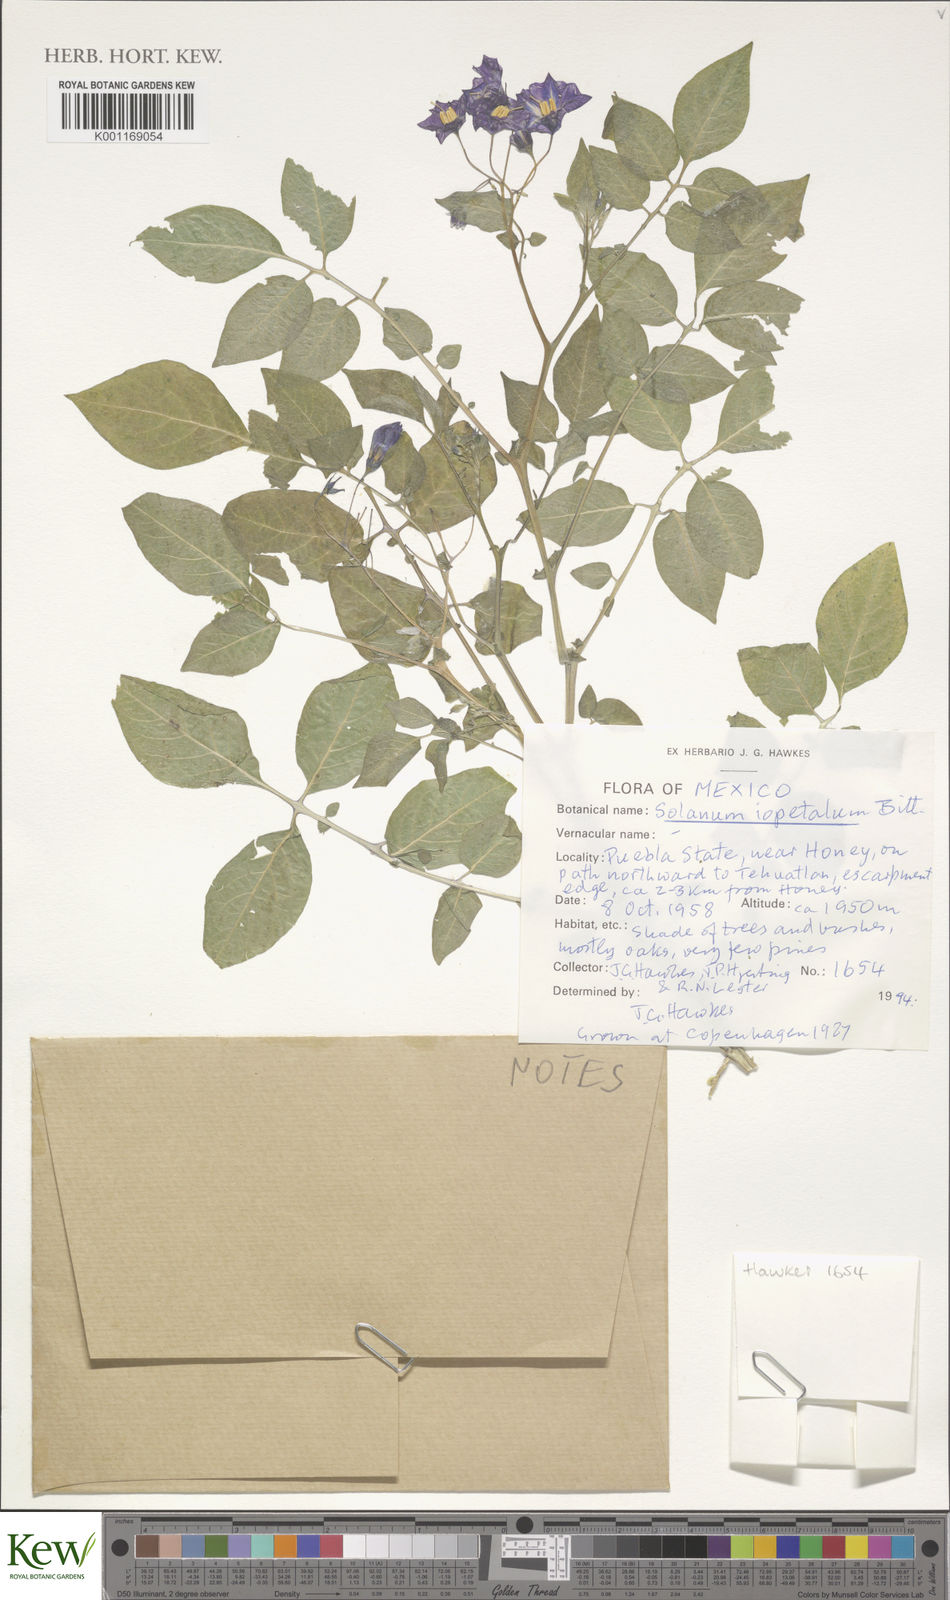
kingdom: Plantae
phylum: Tracheophyta
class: Magnoliopsida
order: Solanales
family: Solanaceae
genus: Solanum
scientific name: Solanum iopetalum
